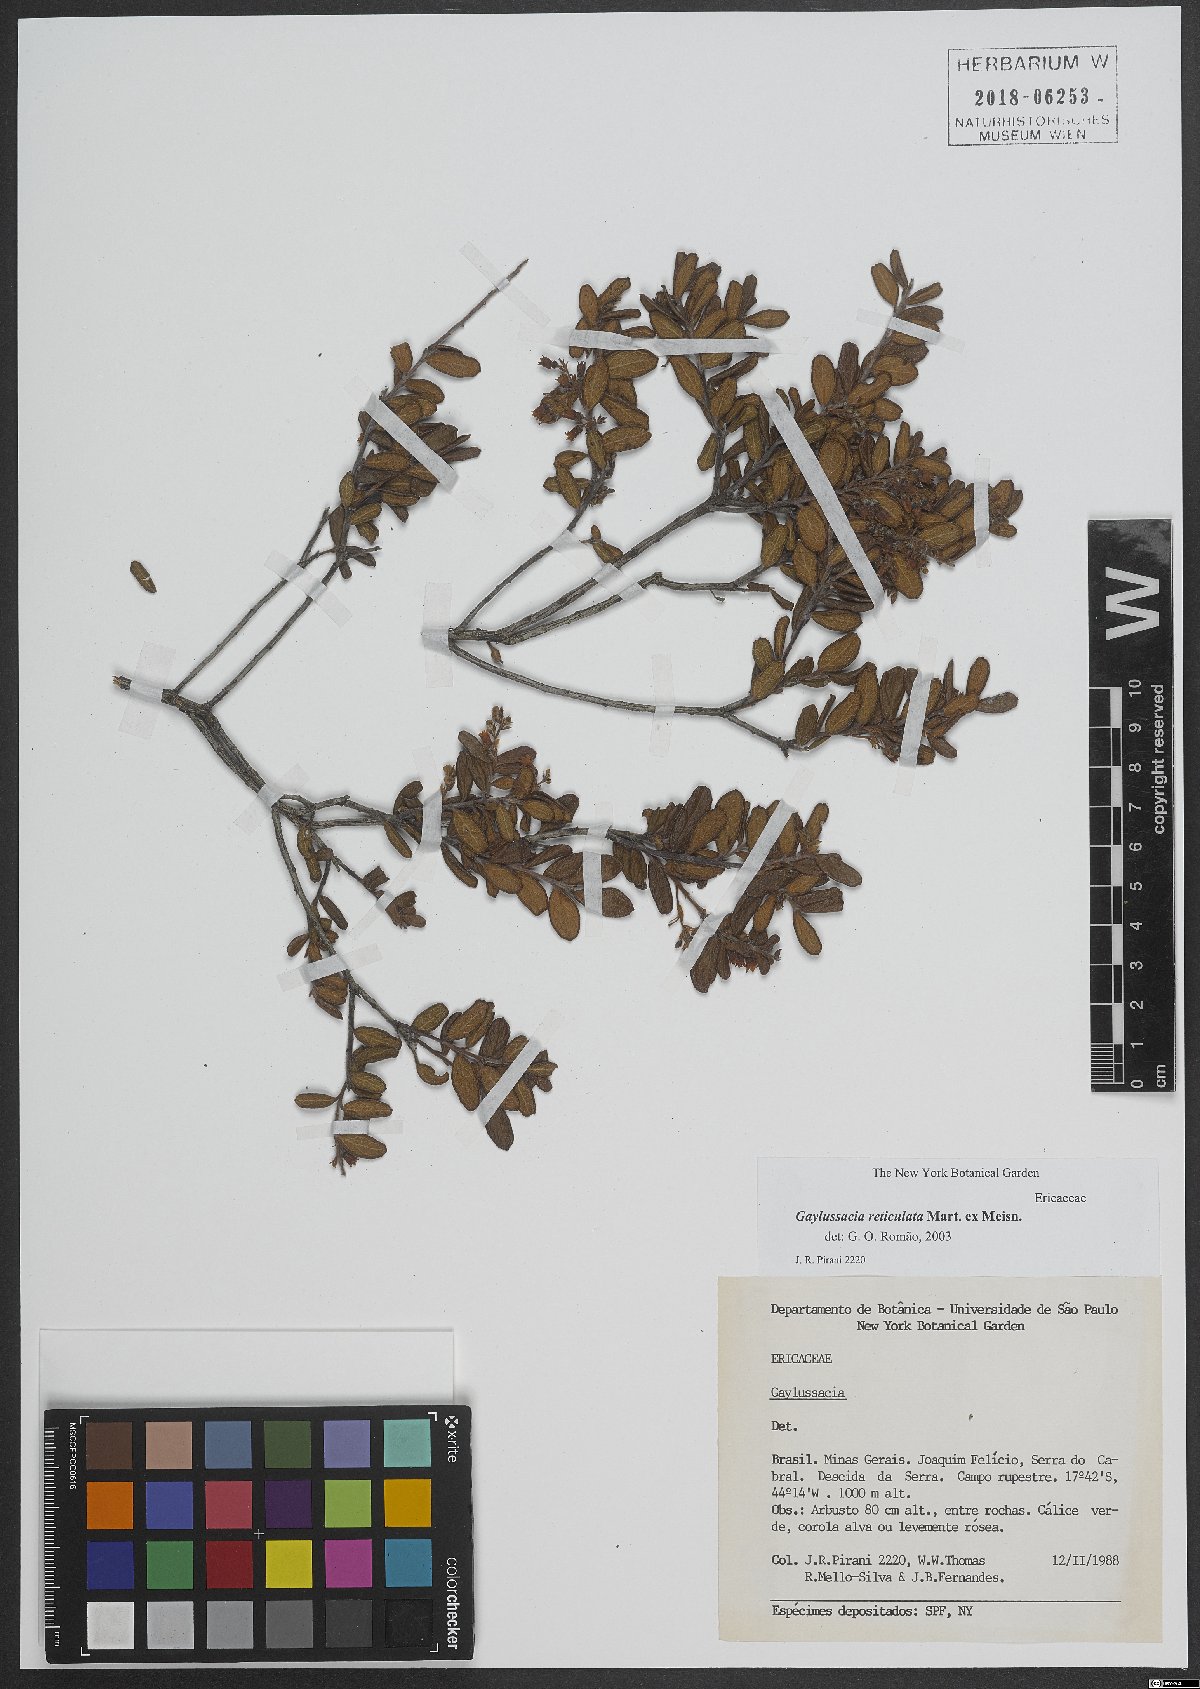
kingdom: Plantae
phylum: Tracheophyta
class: Magnoliopsida
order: Ericales
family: Ericaceae
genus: Gaylussacia
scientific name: Gaylussacia reticulata
